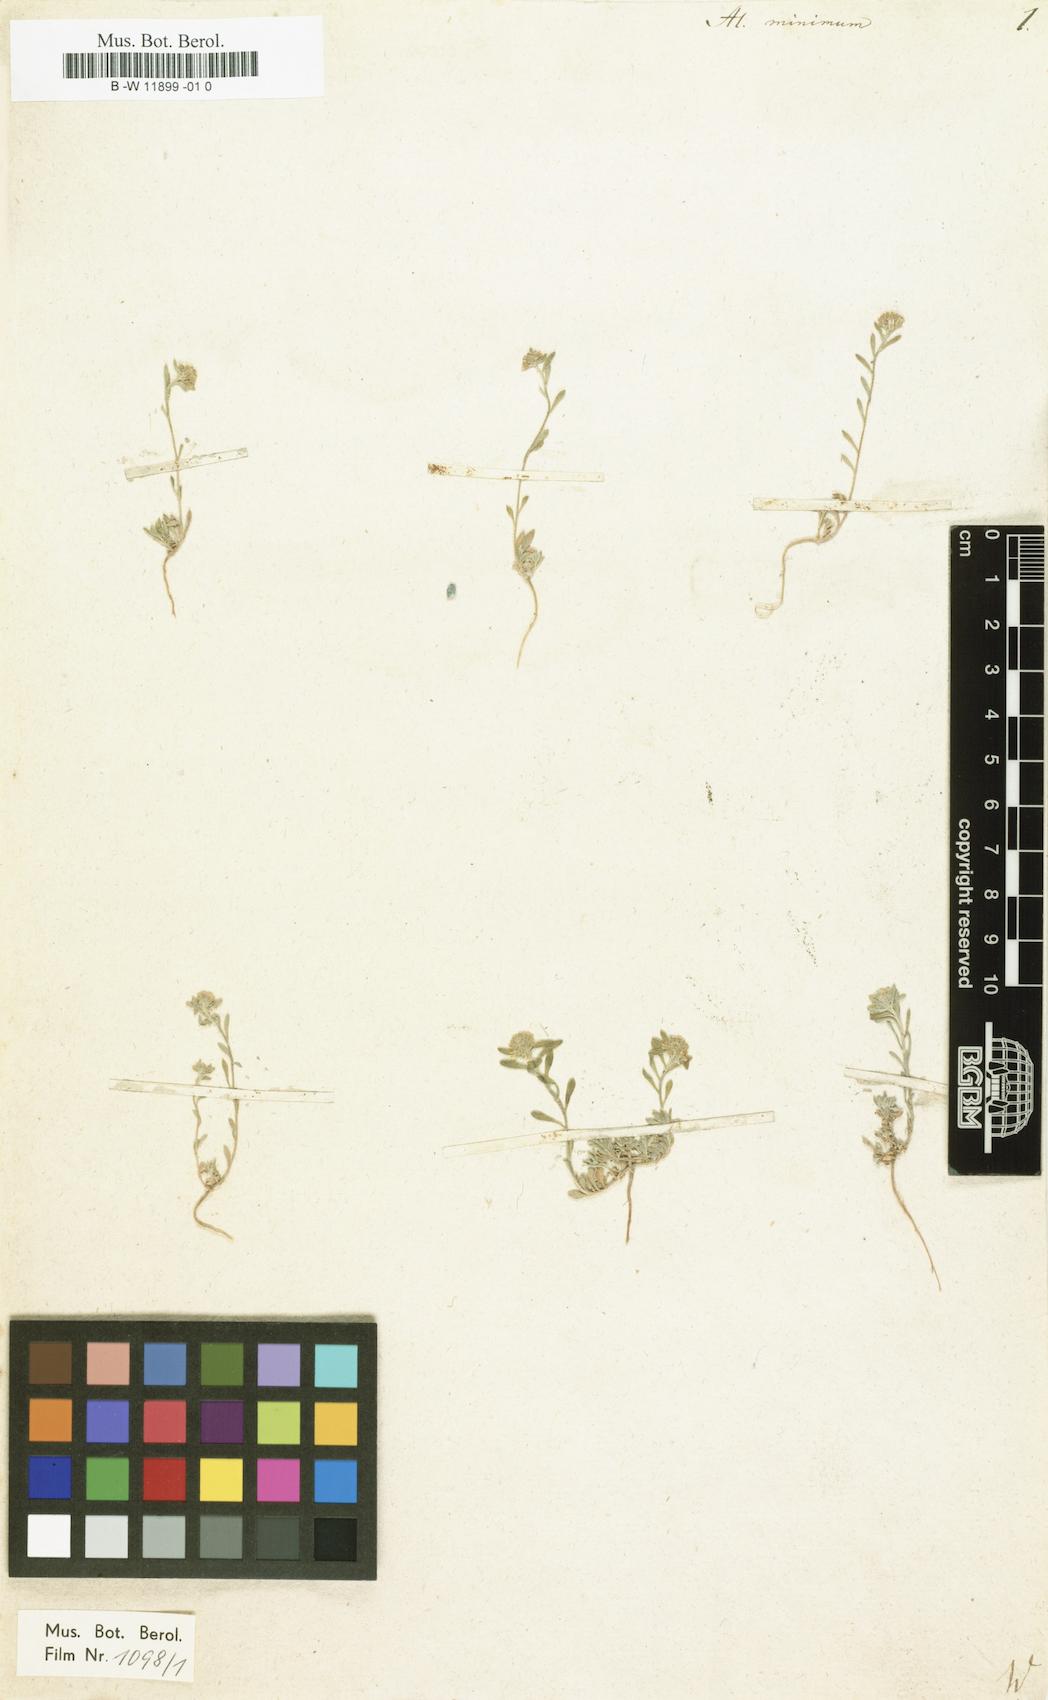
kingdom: Plantae
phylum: Tracheophyta
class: Magnoliopsida
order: Brassicales
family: Brassicaceae
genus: Alyssum
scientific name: Alyssum turkestanicum
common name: Desert alyssum
